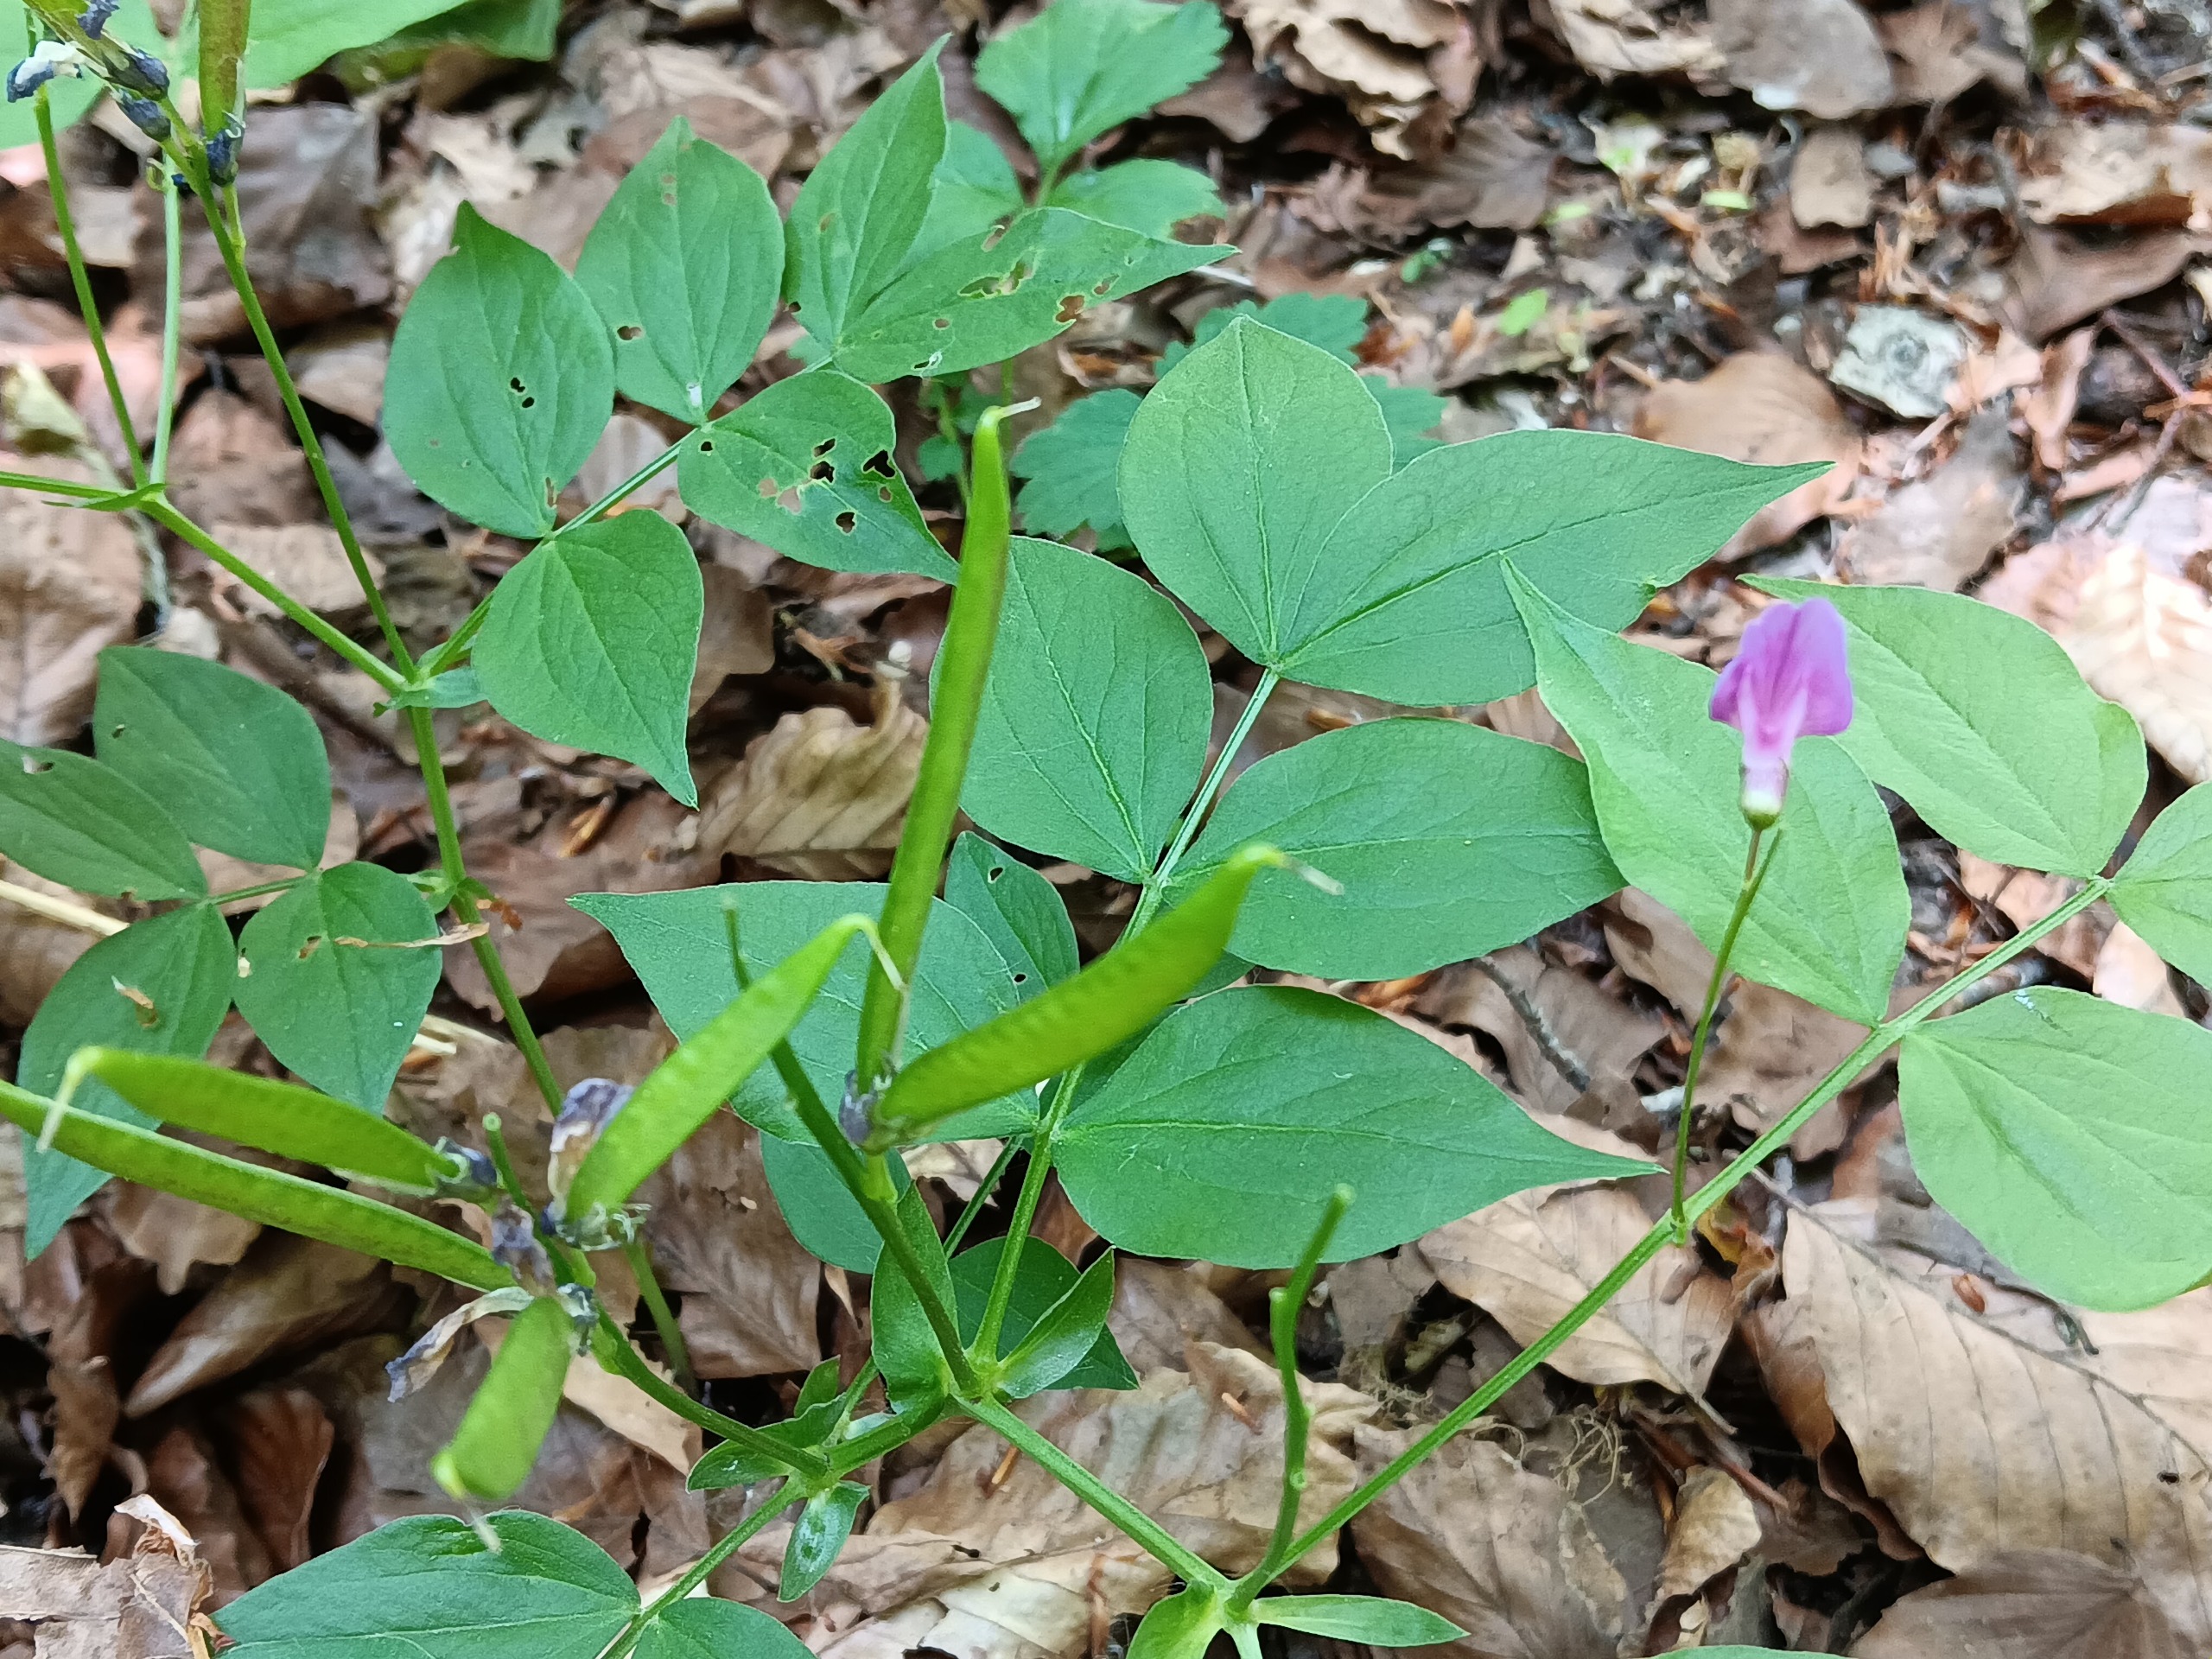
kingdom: Plantae
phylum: Tracheophyta
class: Magnoliopsida
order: Fabales
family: Fabaceae
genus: Lathyrus
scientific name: Lathyrus vernus
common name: Vår-fladbælg
